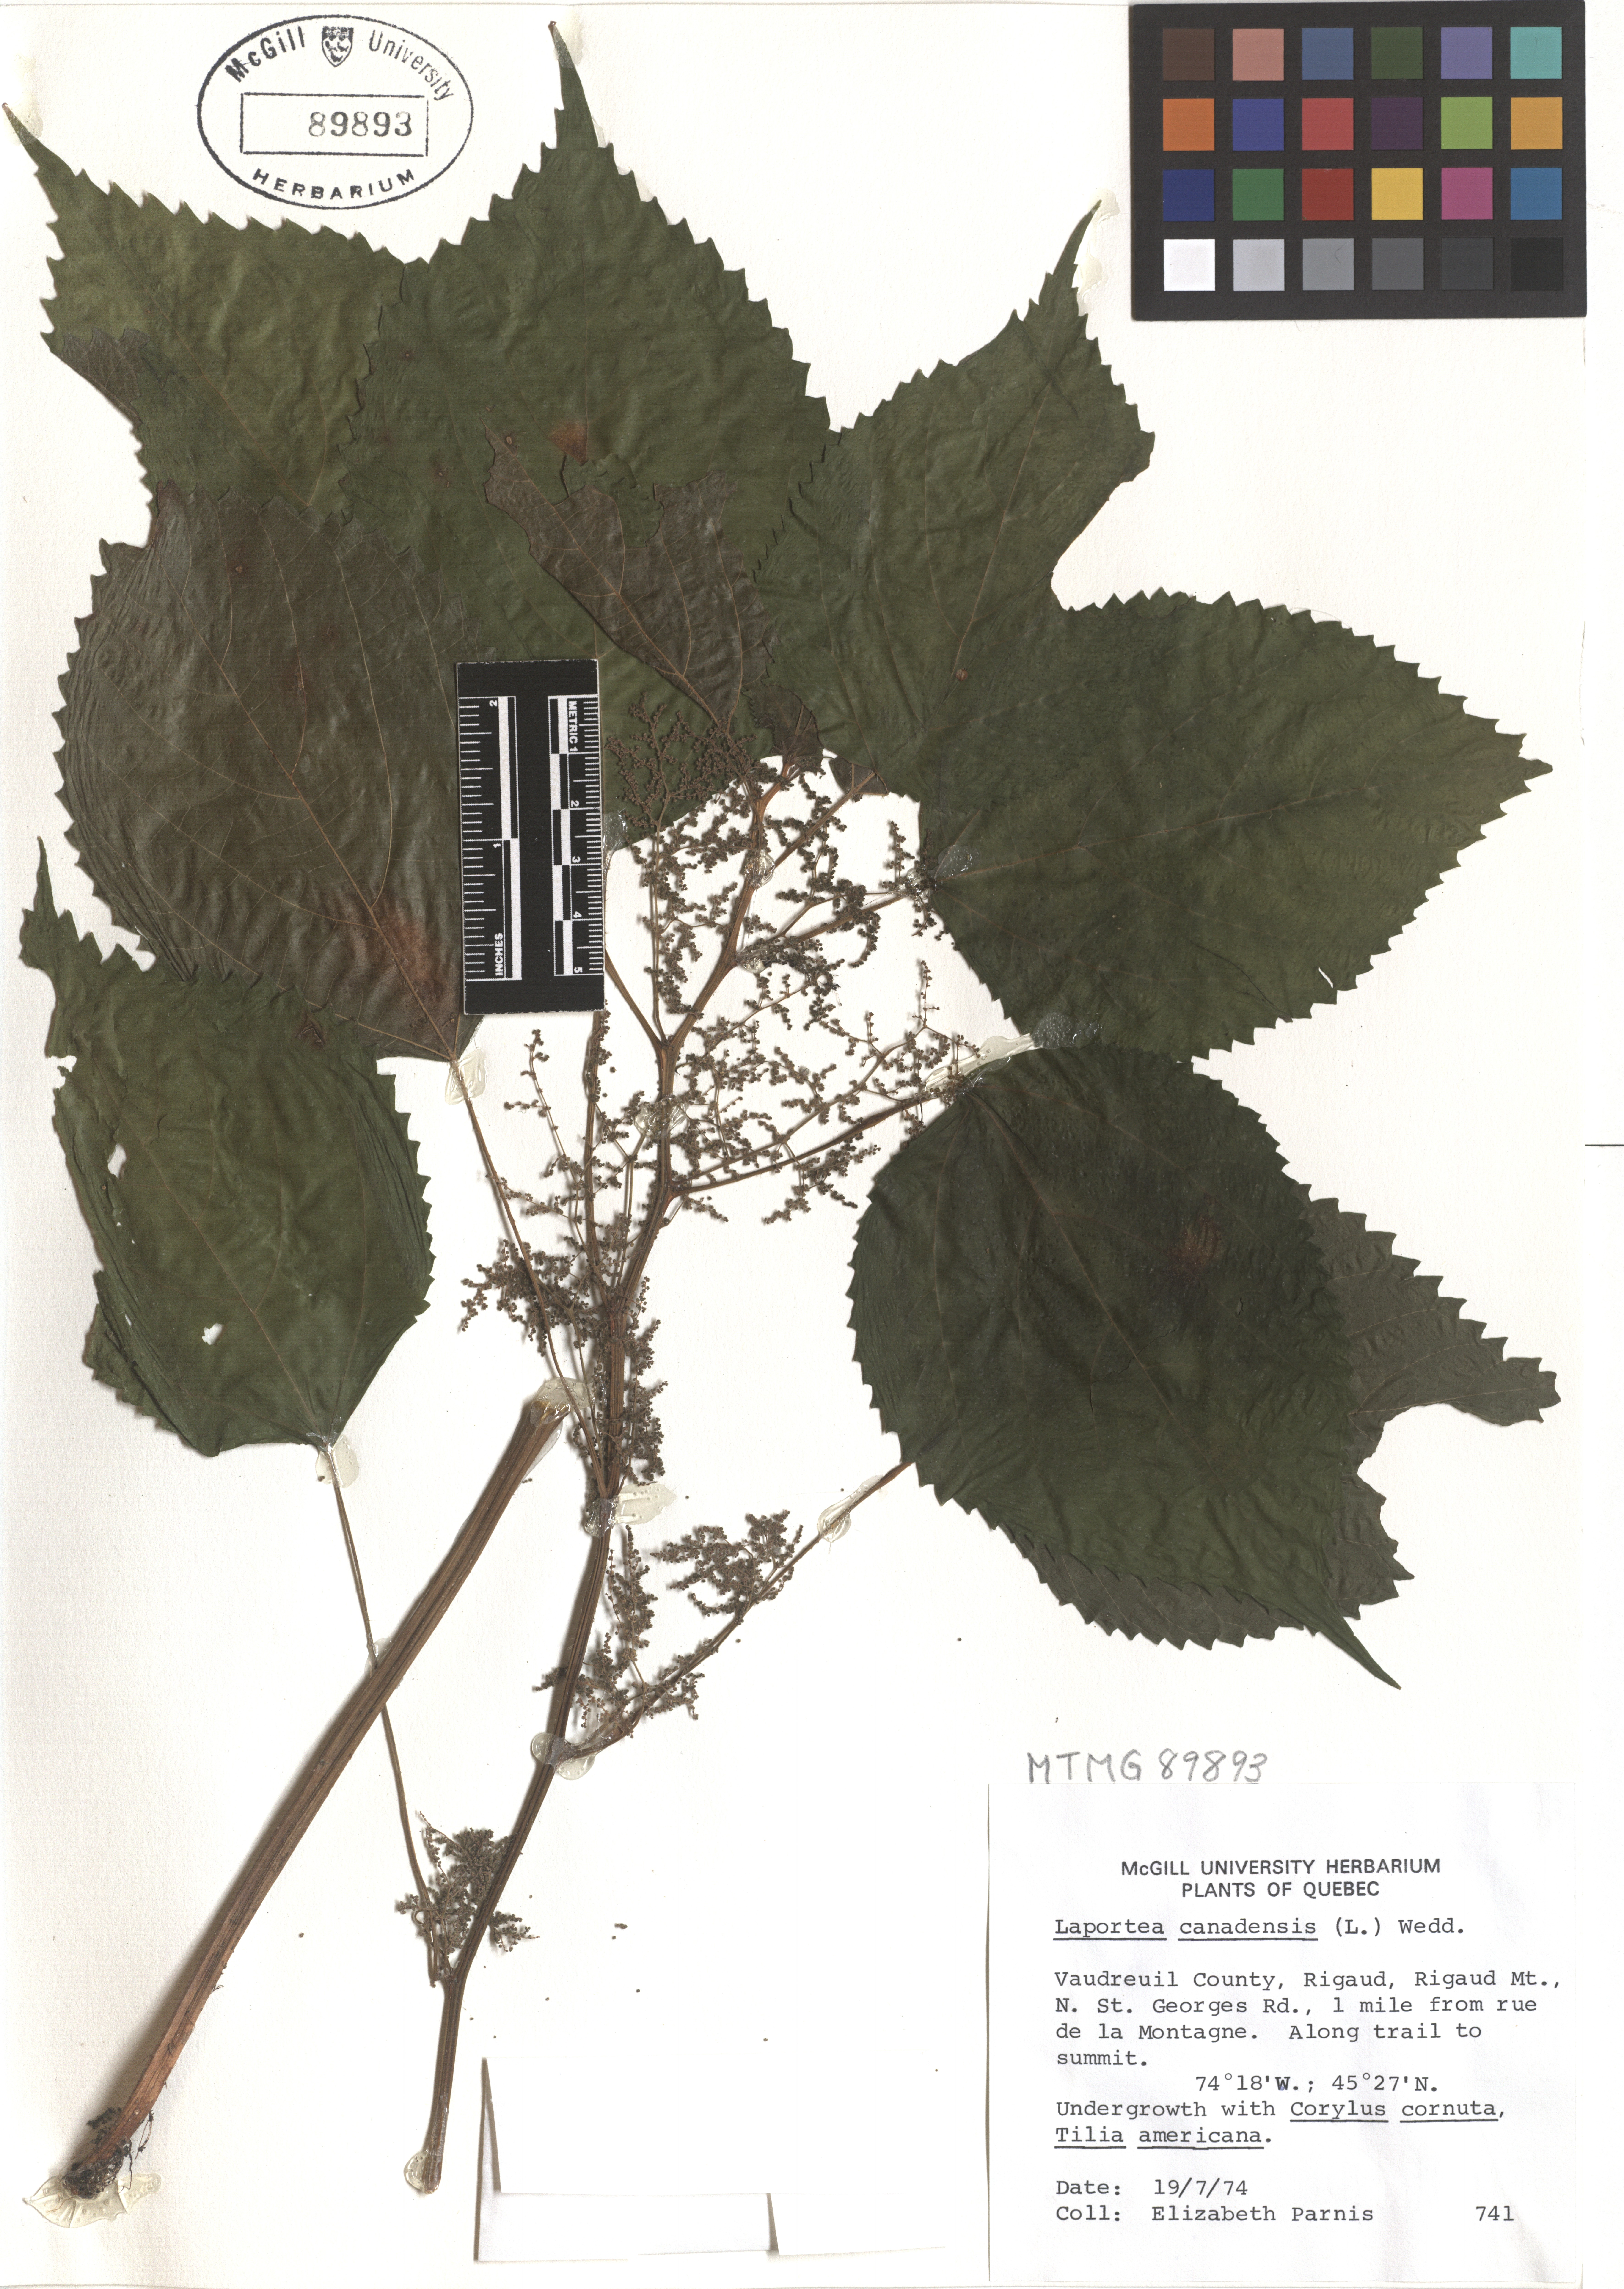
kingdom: Plantae
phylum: Tracheophyta
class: Magnoliopsida
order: Rosales
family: Urticaceae
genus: Laportea
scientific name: Laportea canadensis
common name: Canada nettle
